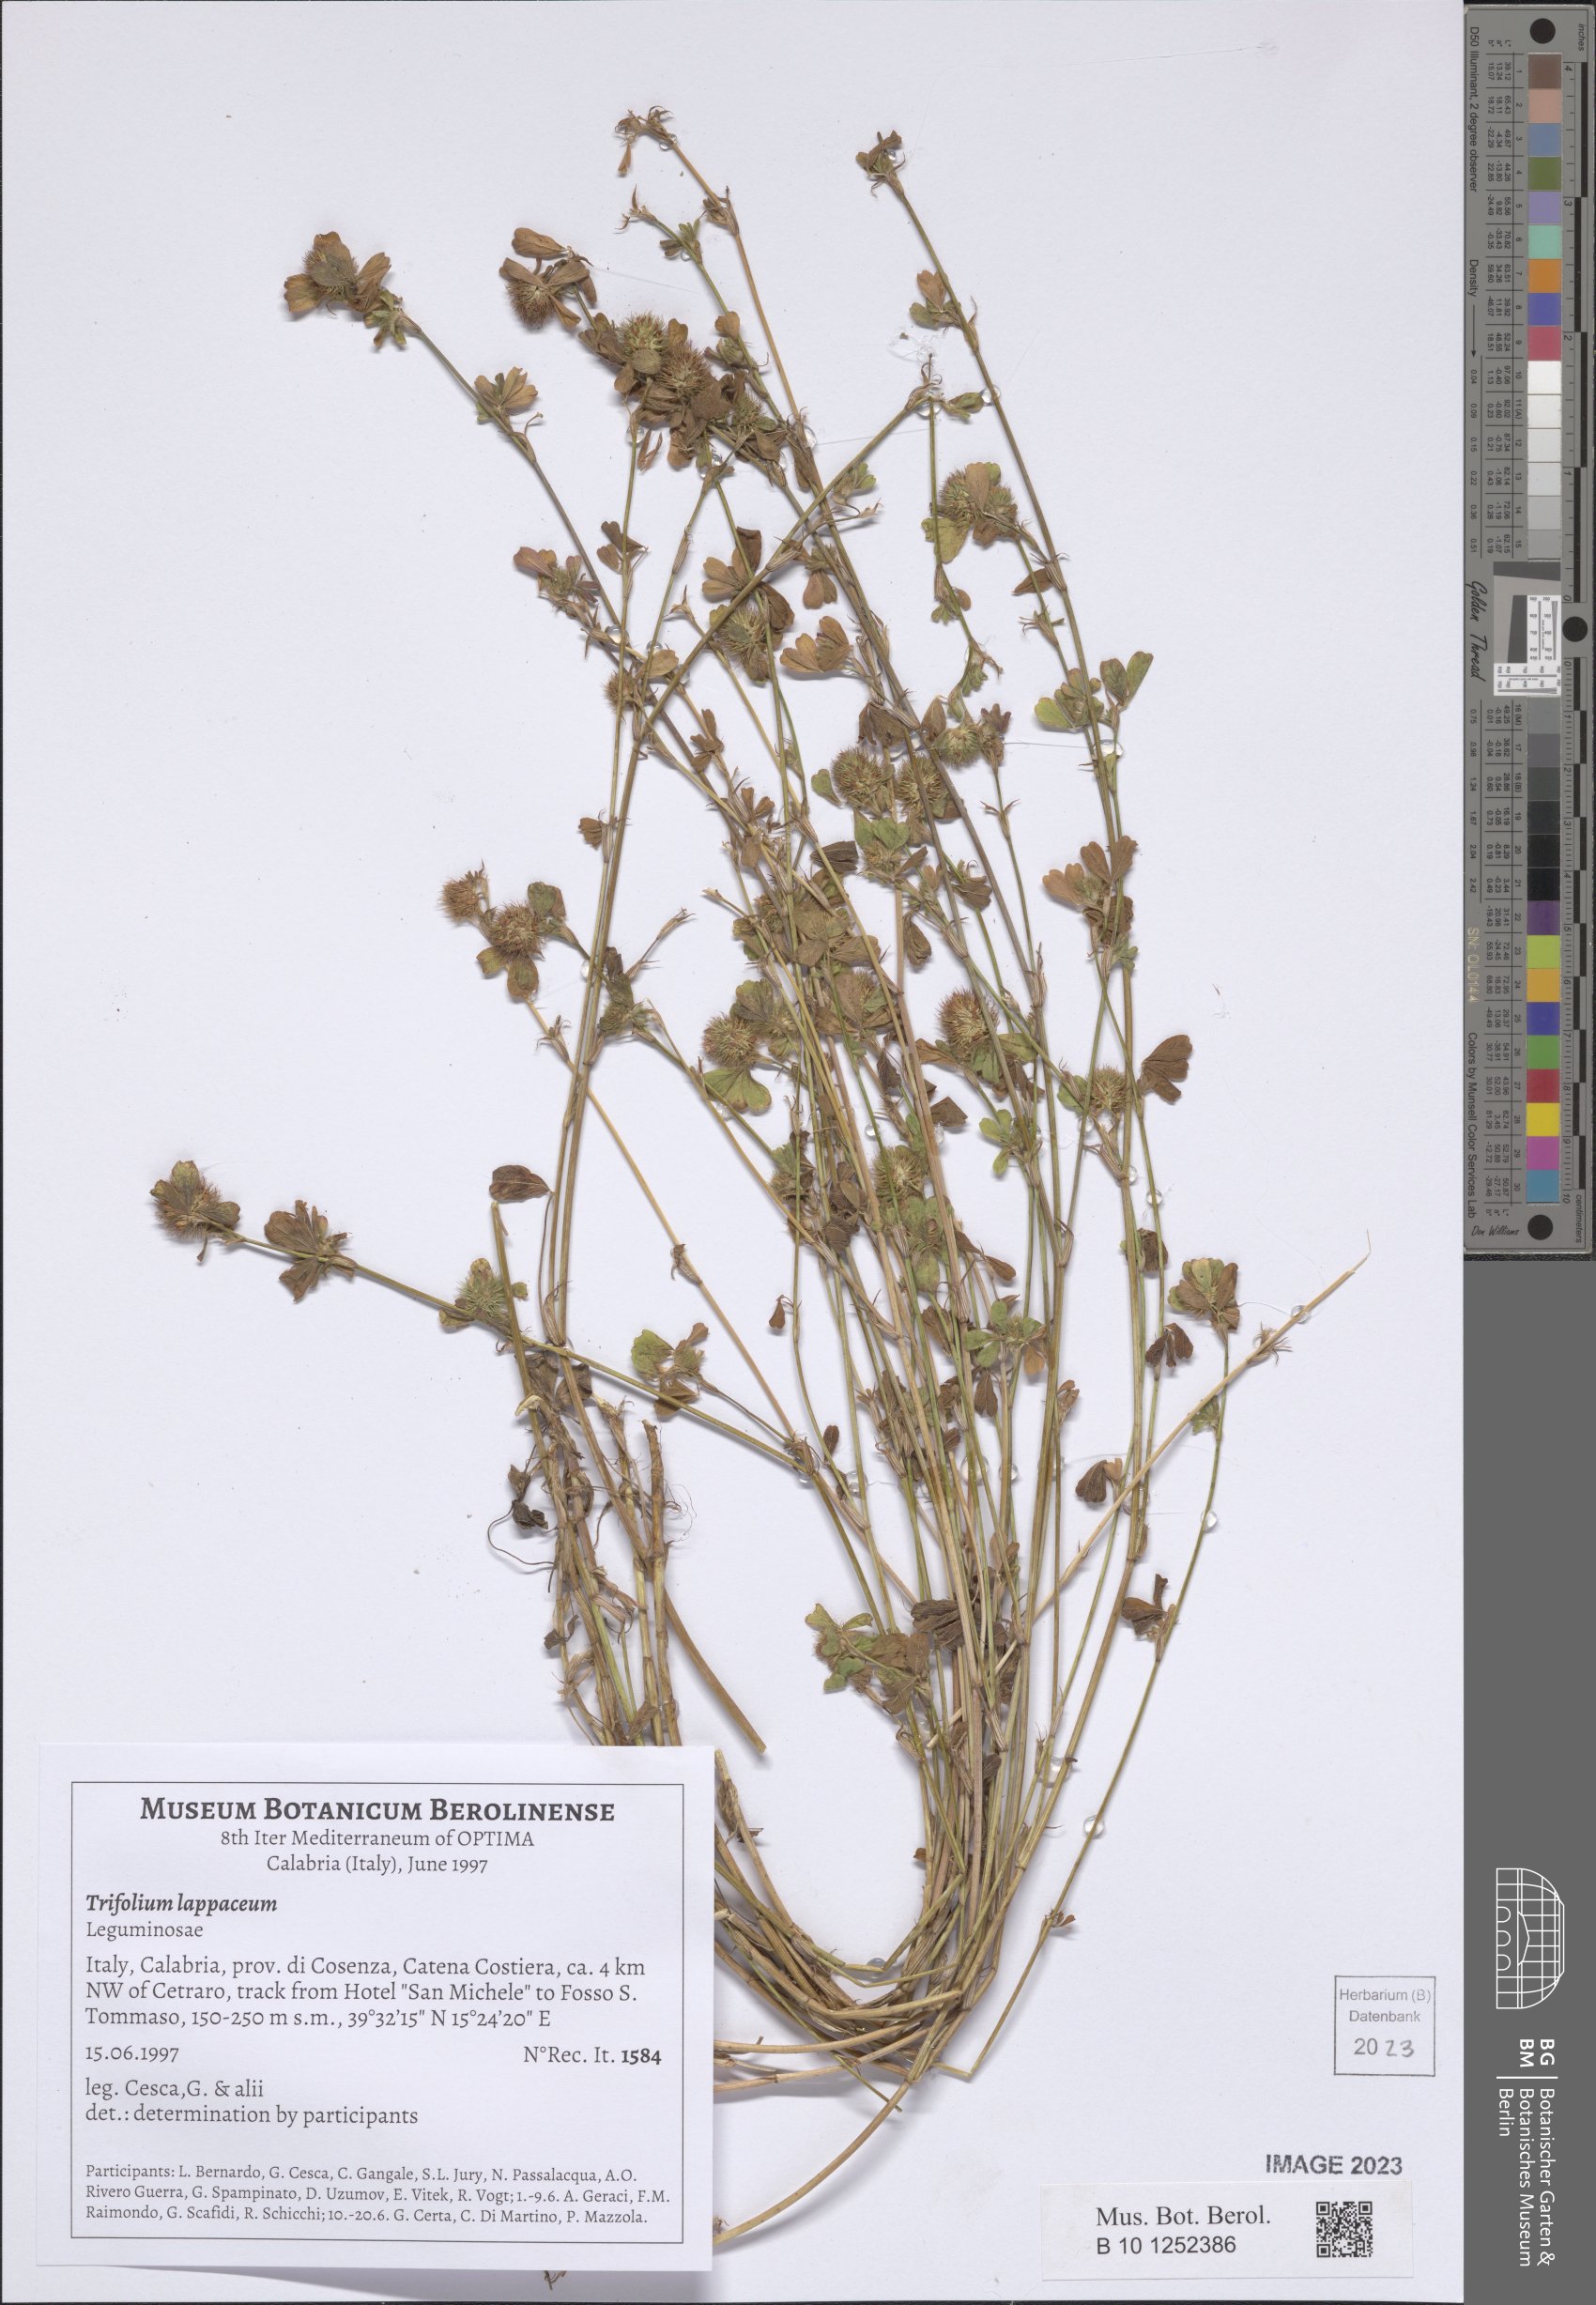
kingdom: Plantae
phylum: Tracheophyta
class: Magnoliopsida
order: Fabales
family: Fabaceae
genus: Trifolium
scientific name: Trifolium lappaceum
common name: Bur clover
